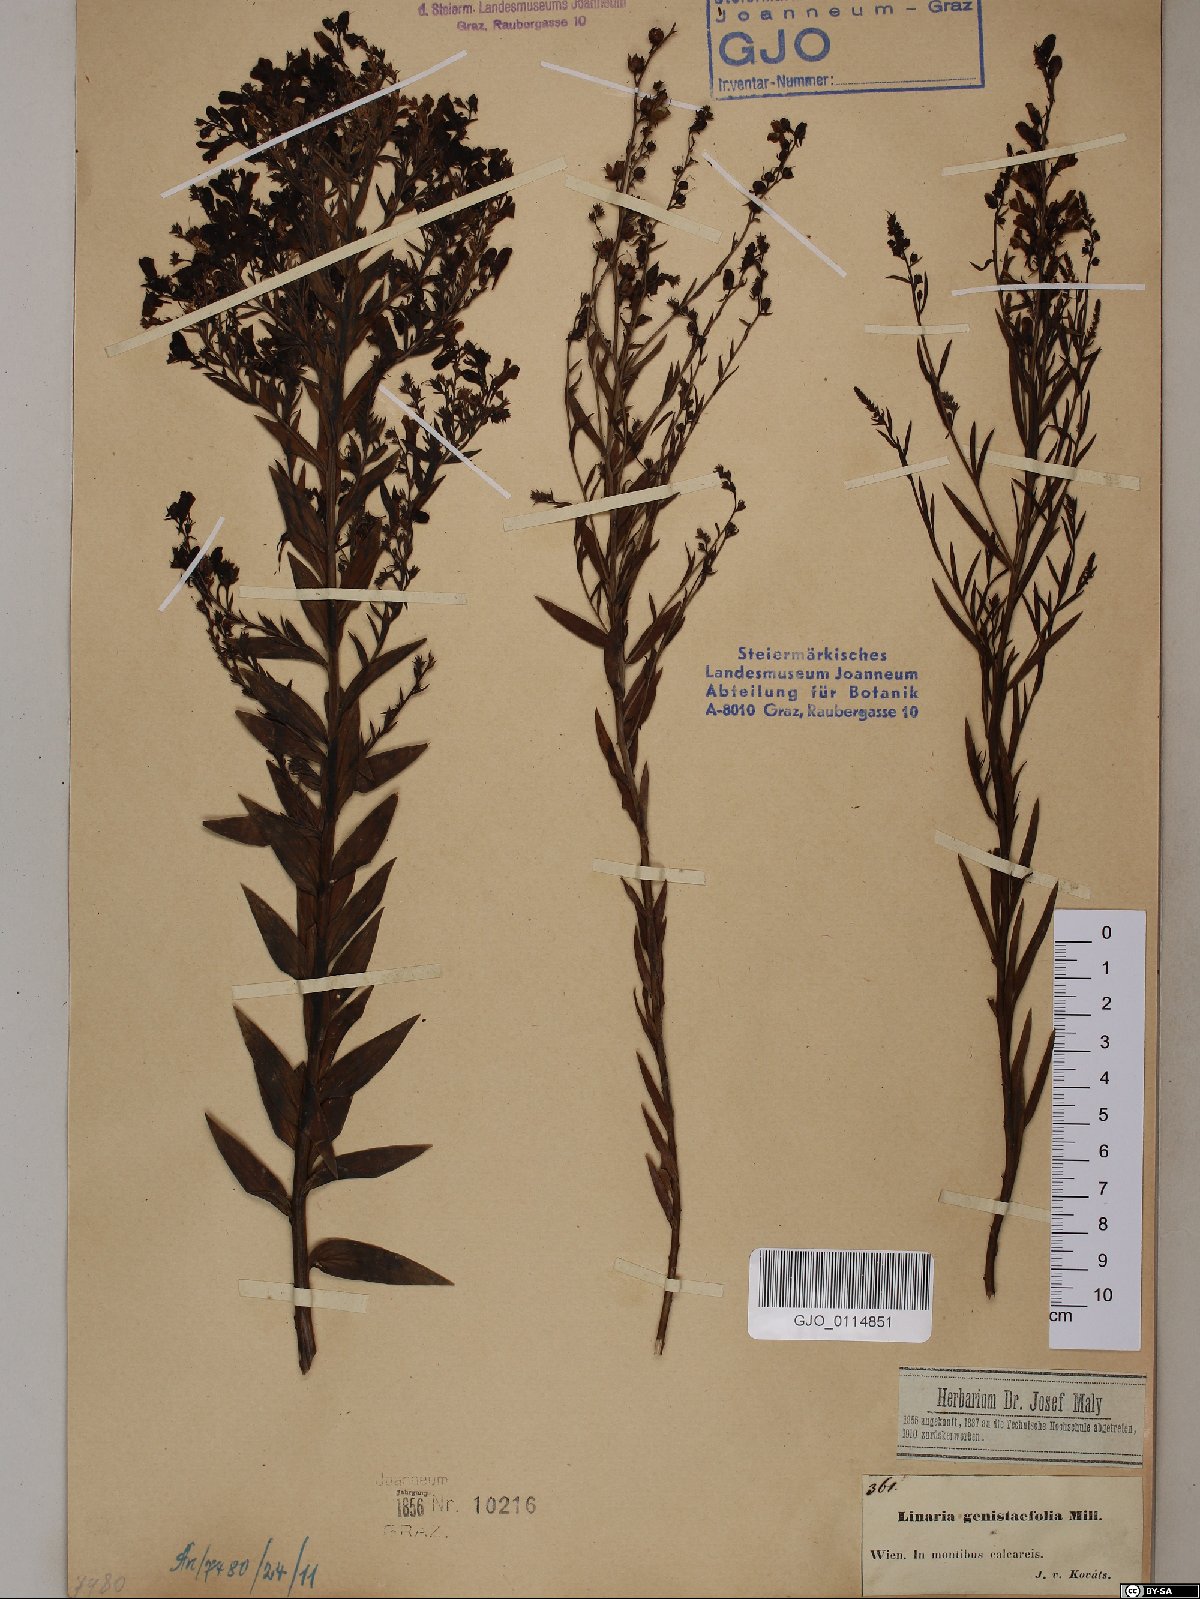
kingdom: Plantae
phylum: Tracheophyta
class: Magnoliopsida
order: Lamiales
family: Plantaginaceae
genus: Linaria
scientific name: Linaria genistifolia
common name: Broomleaf toadflax
